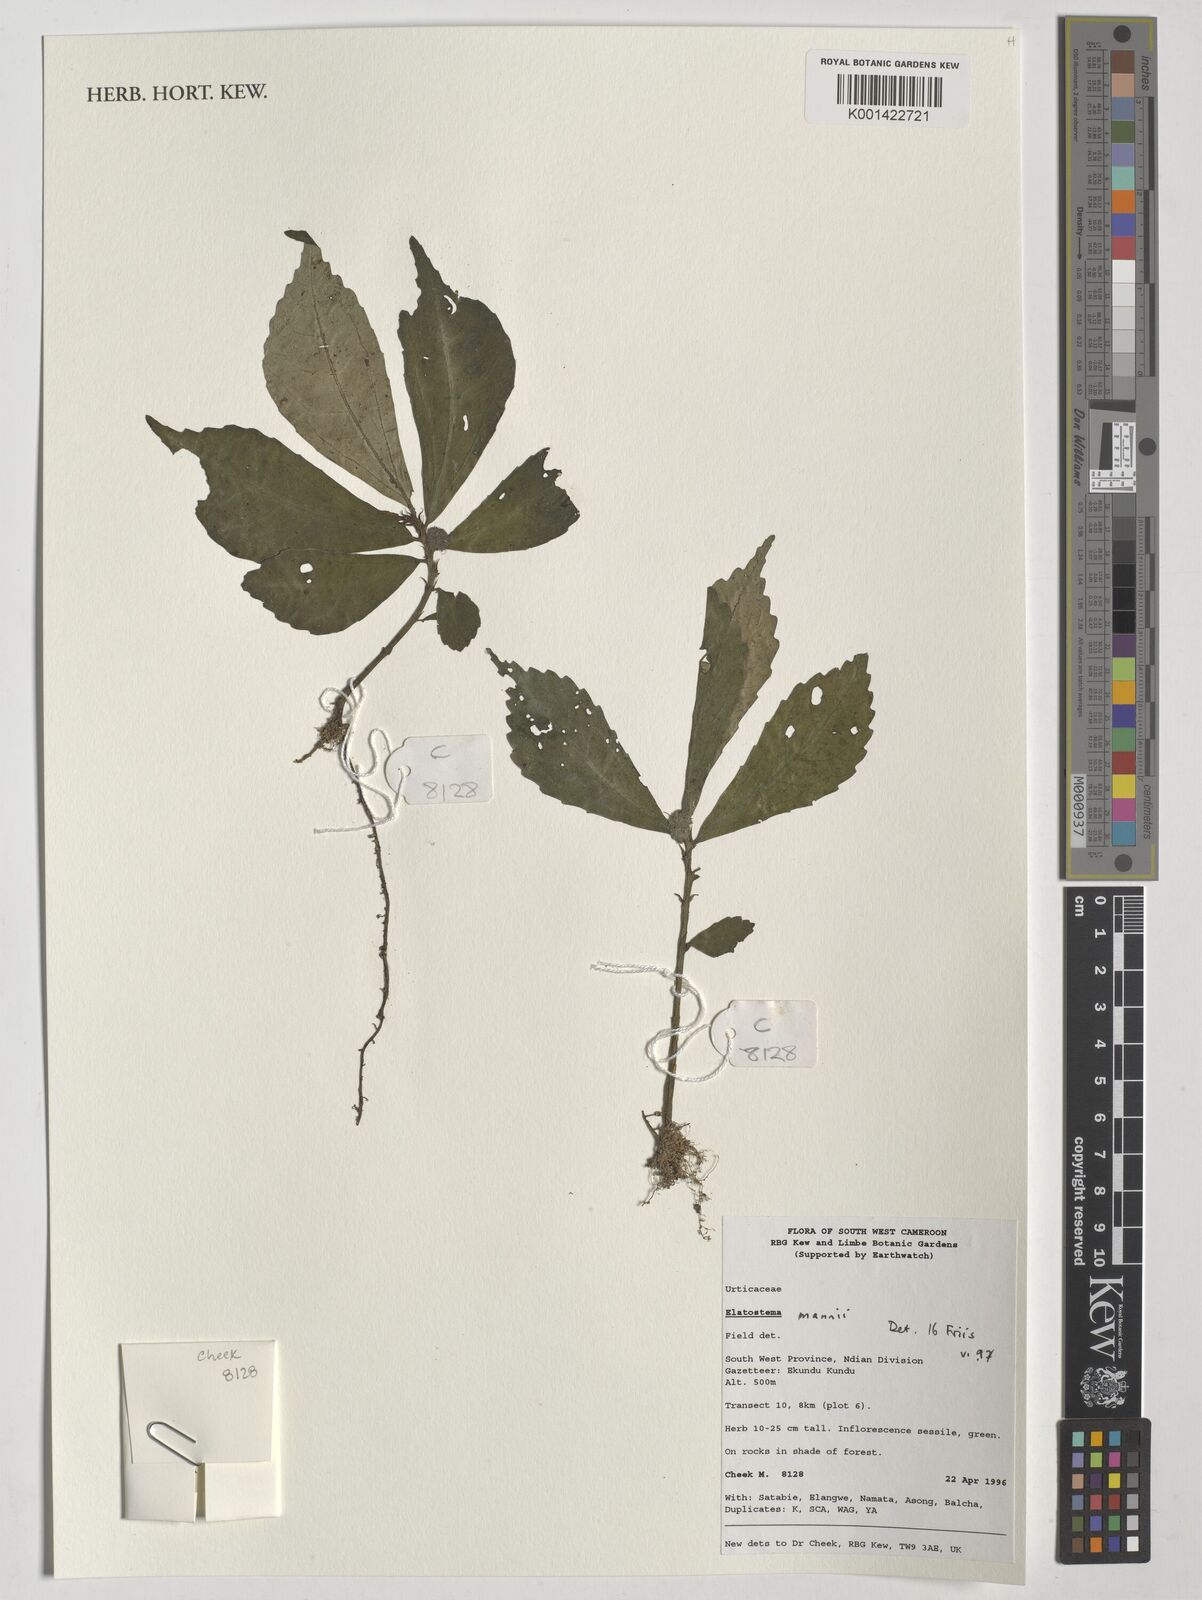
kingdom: Plantae
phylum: Tracheophyta
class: Magnoliopsida
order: Rosales
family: Urticaceae
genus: Elatostema
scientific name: Elatostema mannii
